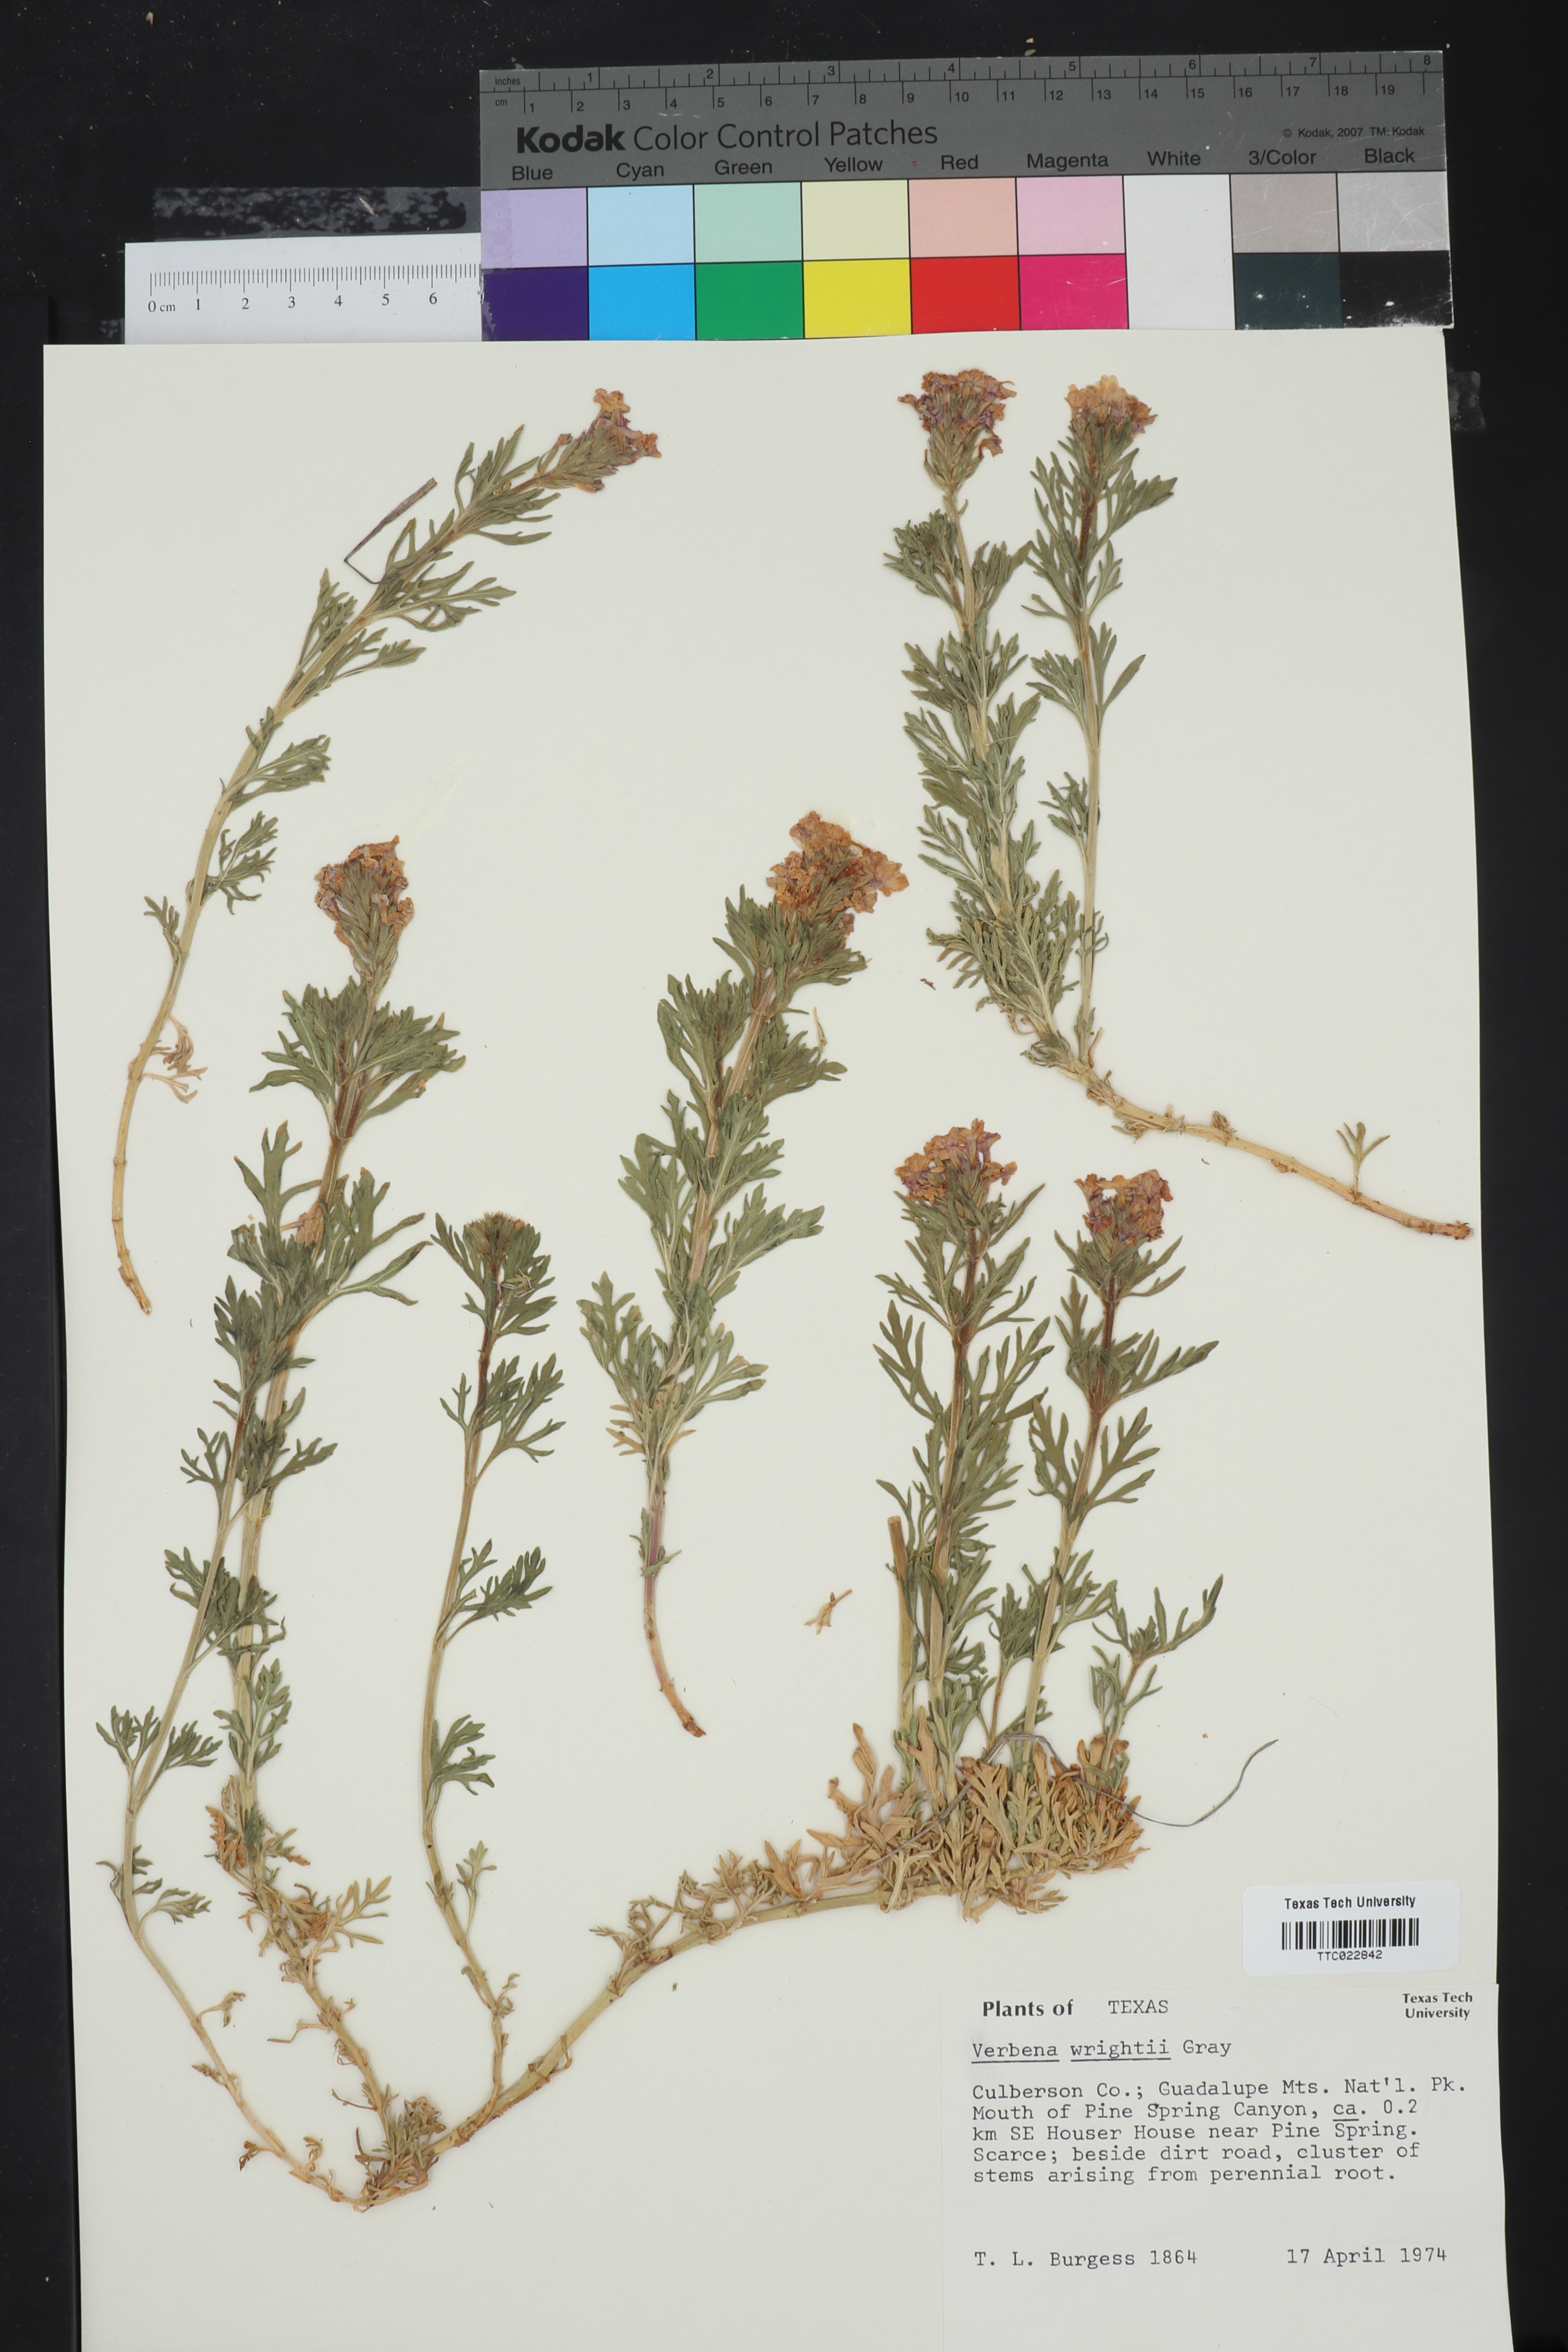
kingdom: Plantae
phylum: Tracheophyta
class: Magnoliopsida
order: Lamiales
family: Verbenaceae
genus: Verbena
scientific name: Verbena bipinnatifida
